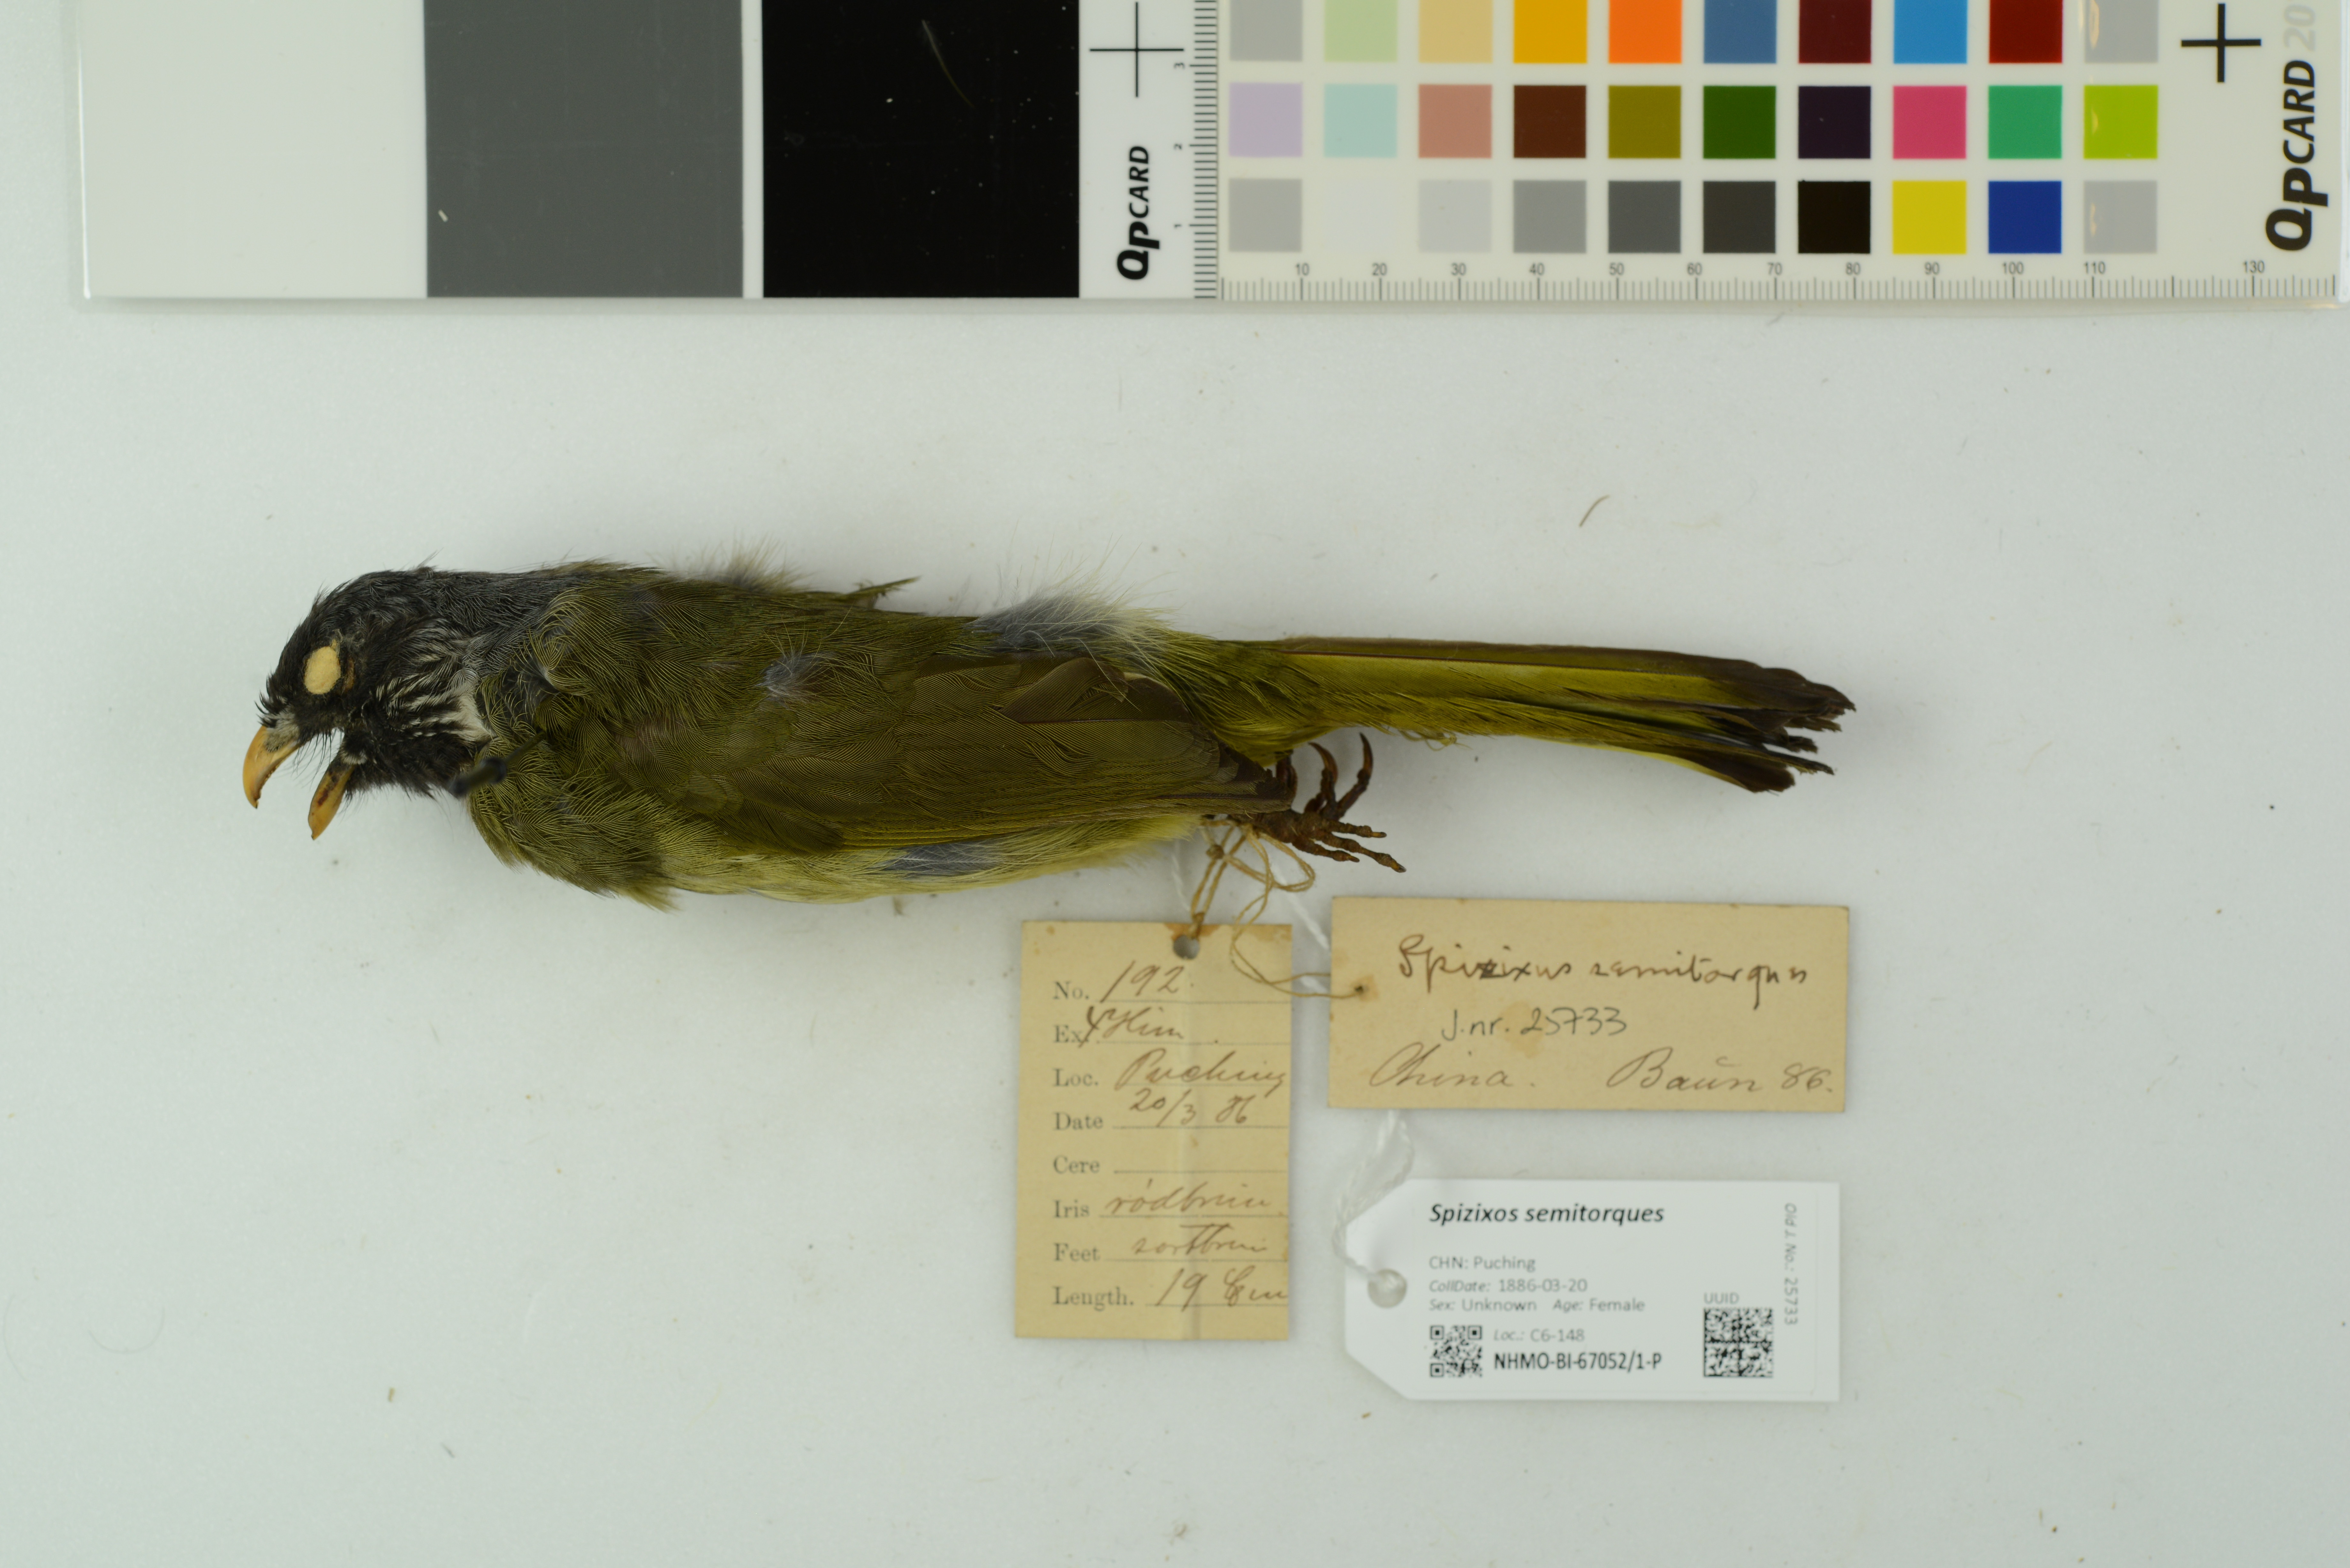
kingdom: Animalia
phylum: Chordata
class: Aves
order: Passeriformes
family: Pycnonotidae
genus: Spizixos
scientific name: Spizixos semitorques
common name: Collared finchbill
